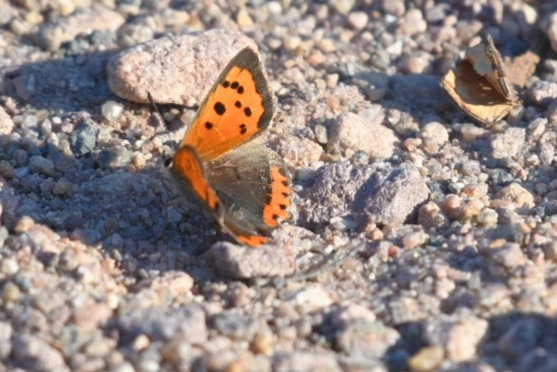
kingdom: Animalia
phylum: Arthropoda
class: Insecta
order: Lepidoptera
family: Lycaenidae
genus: Lycaena
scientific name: Lycaena phlaeas
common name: Lille ildfugl
